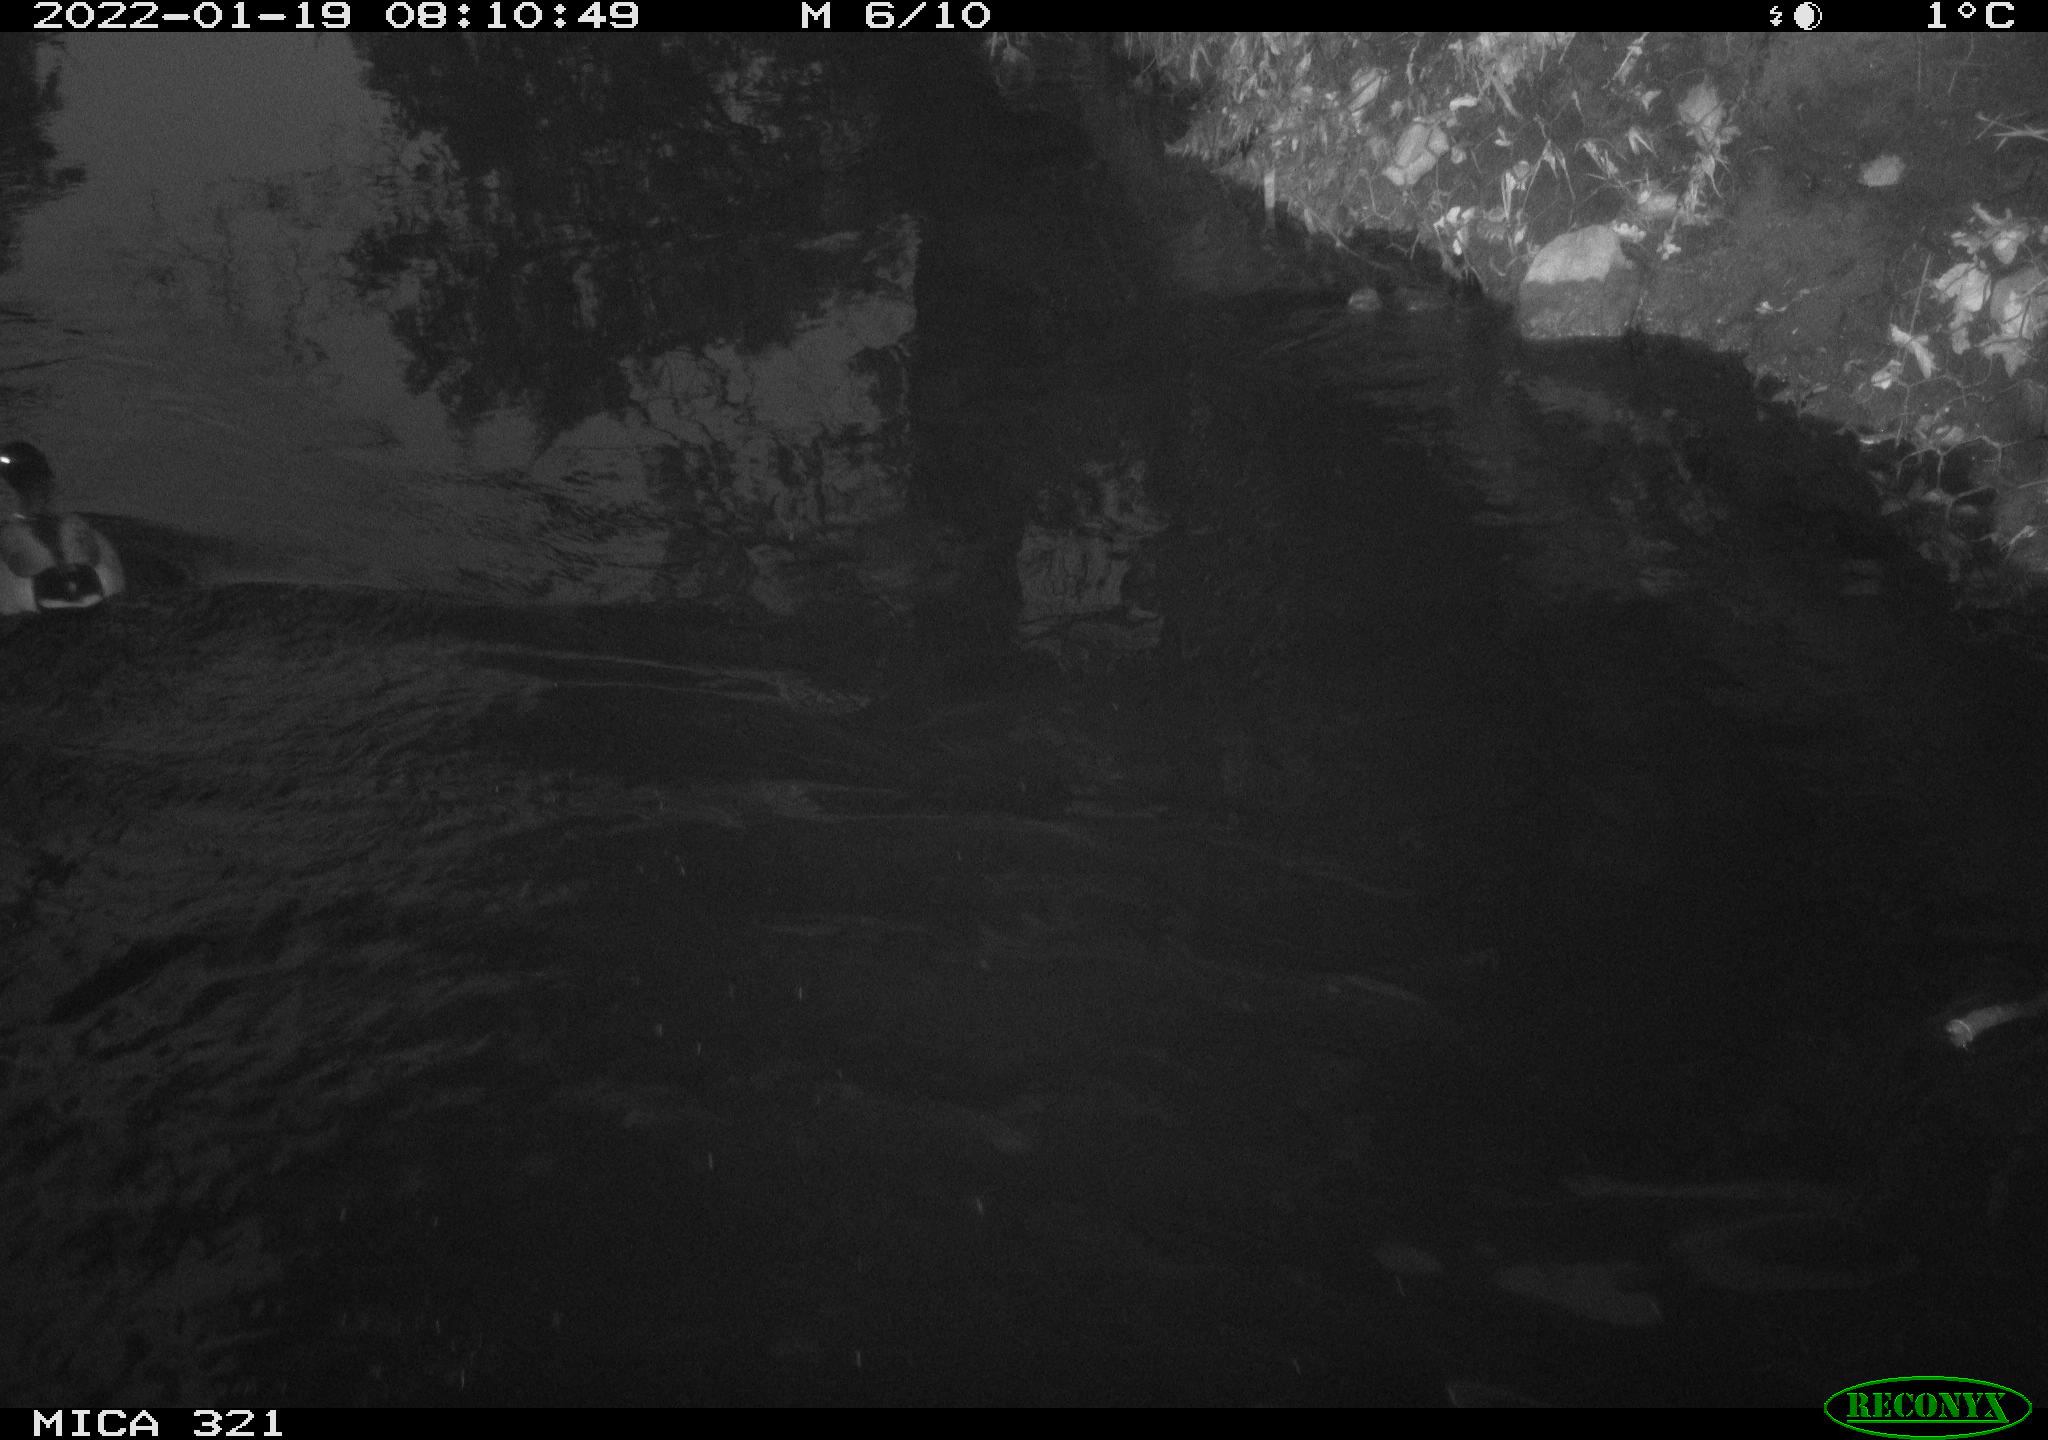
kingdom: Animalia
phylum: Chordata
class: Aves
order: Anseriformes
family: Anatidae
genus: Anas
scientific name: Anas
